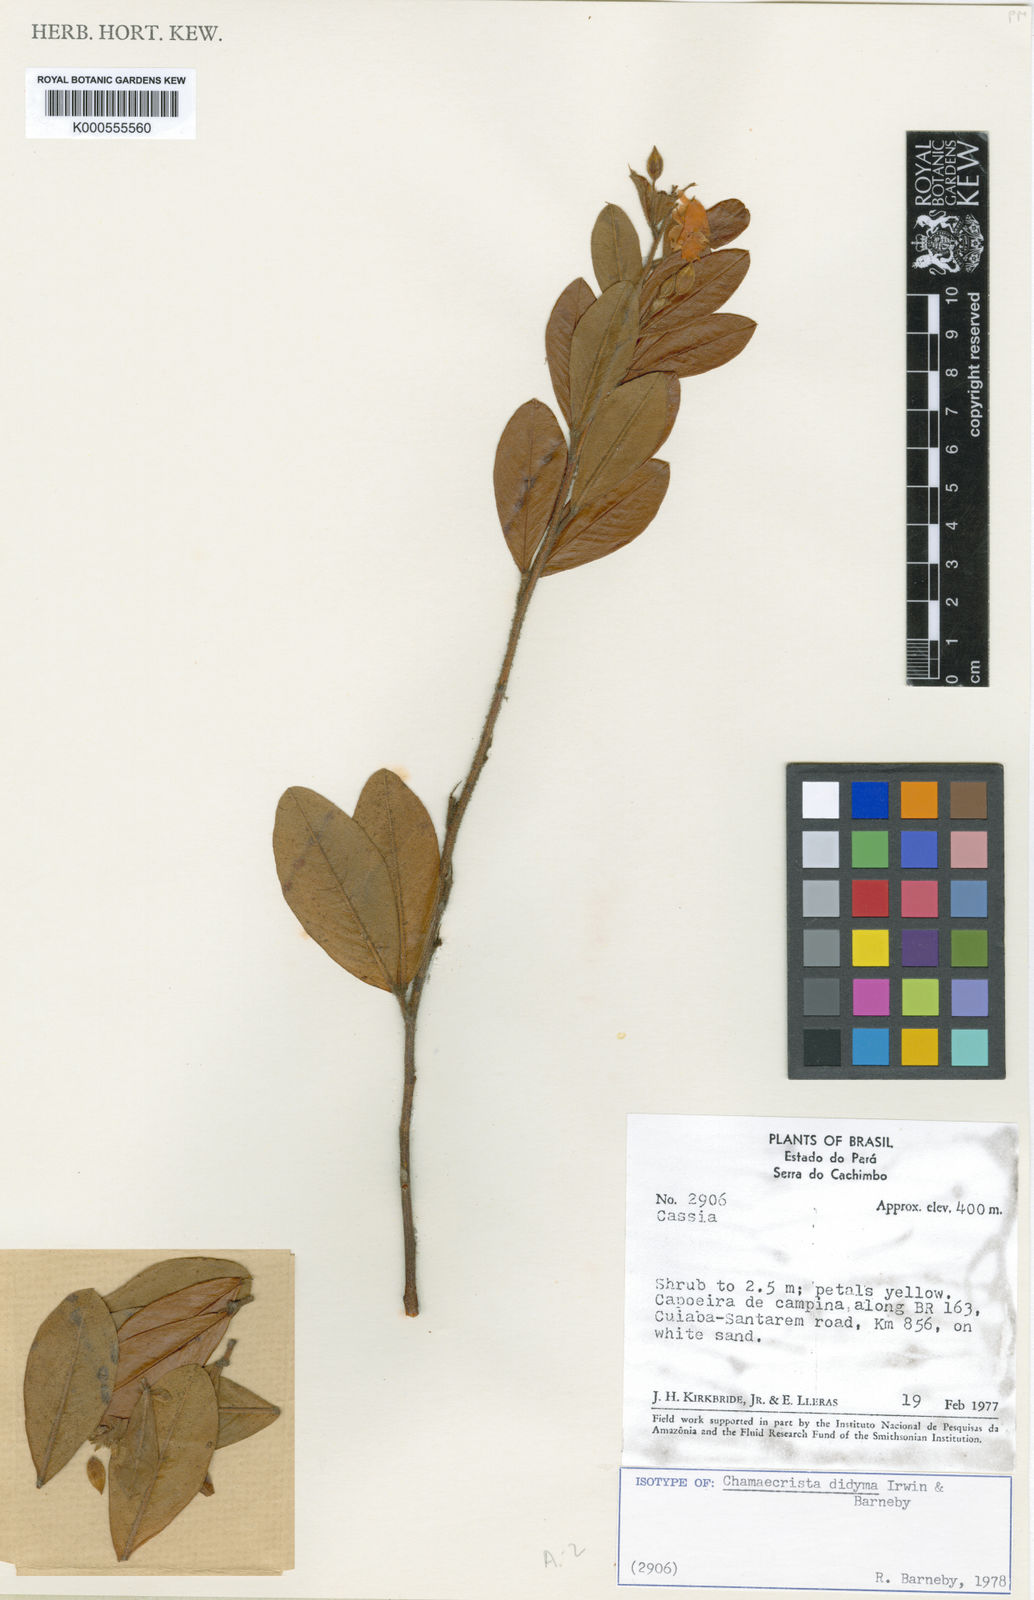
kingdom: Plantae
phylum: Tracheophyta
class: Magnoliopsida
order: Fabales
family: Fabaceae
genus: Chamaecrista
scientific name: Chamaecrista didyma
